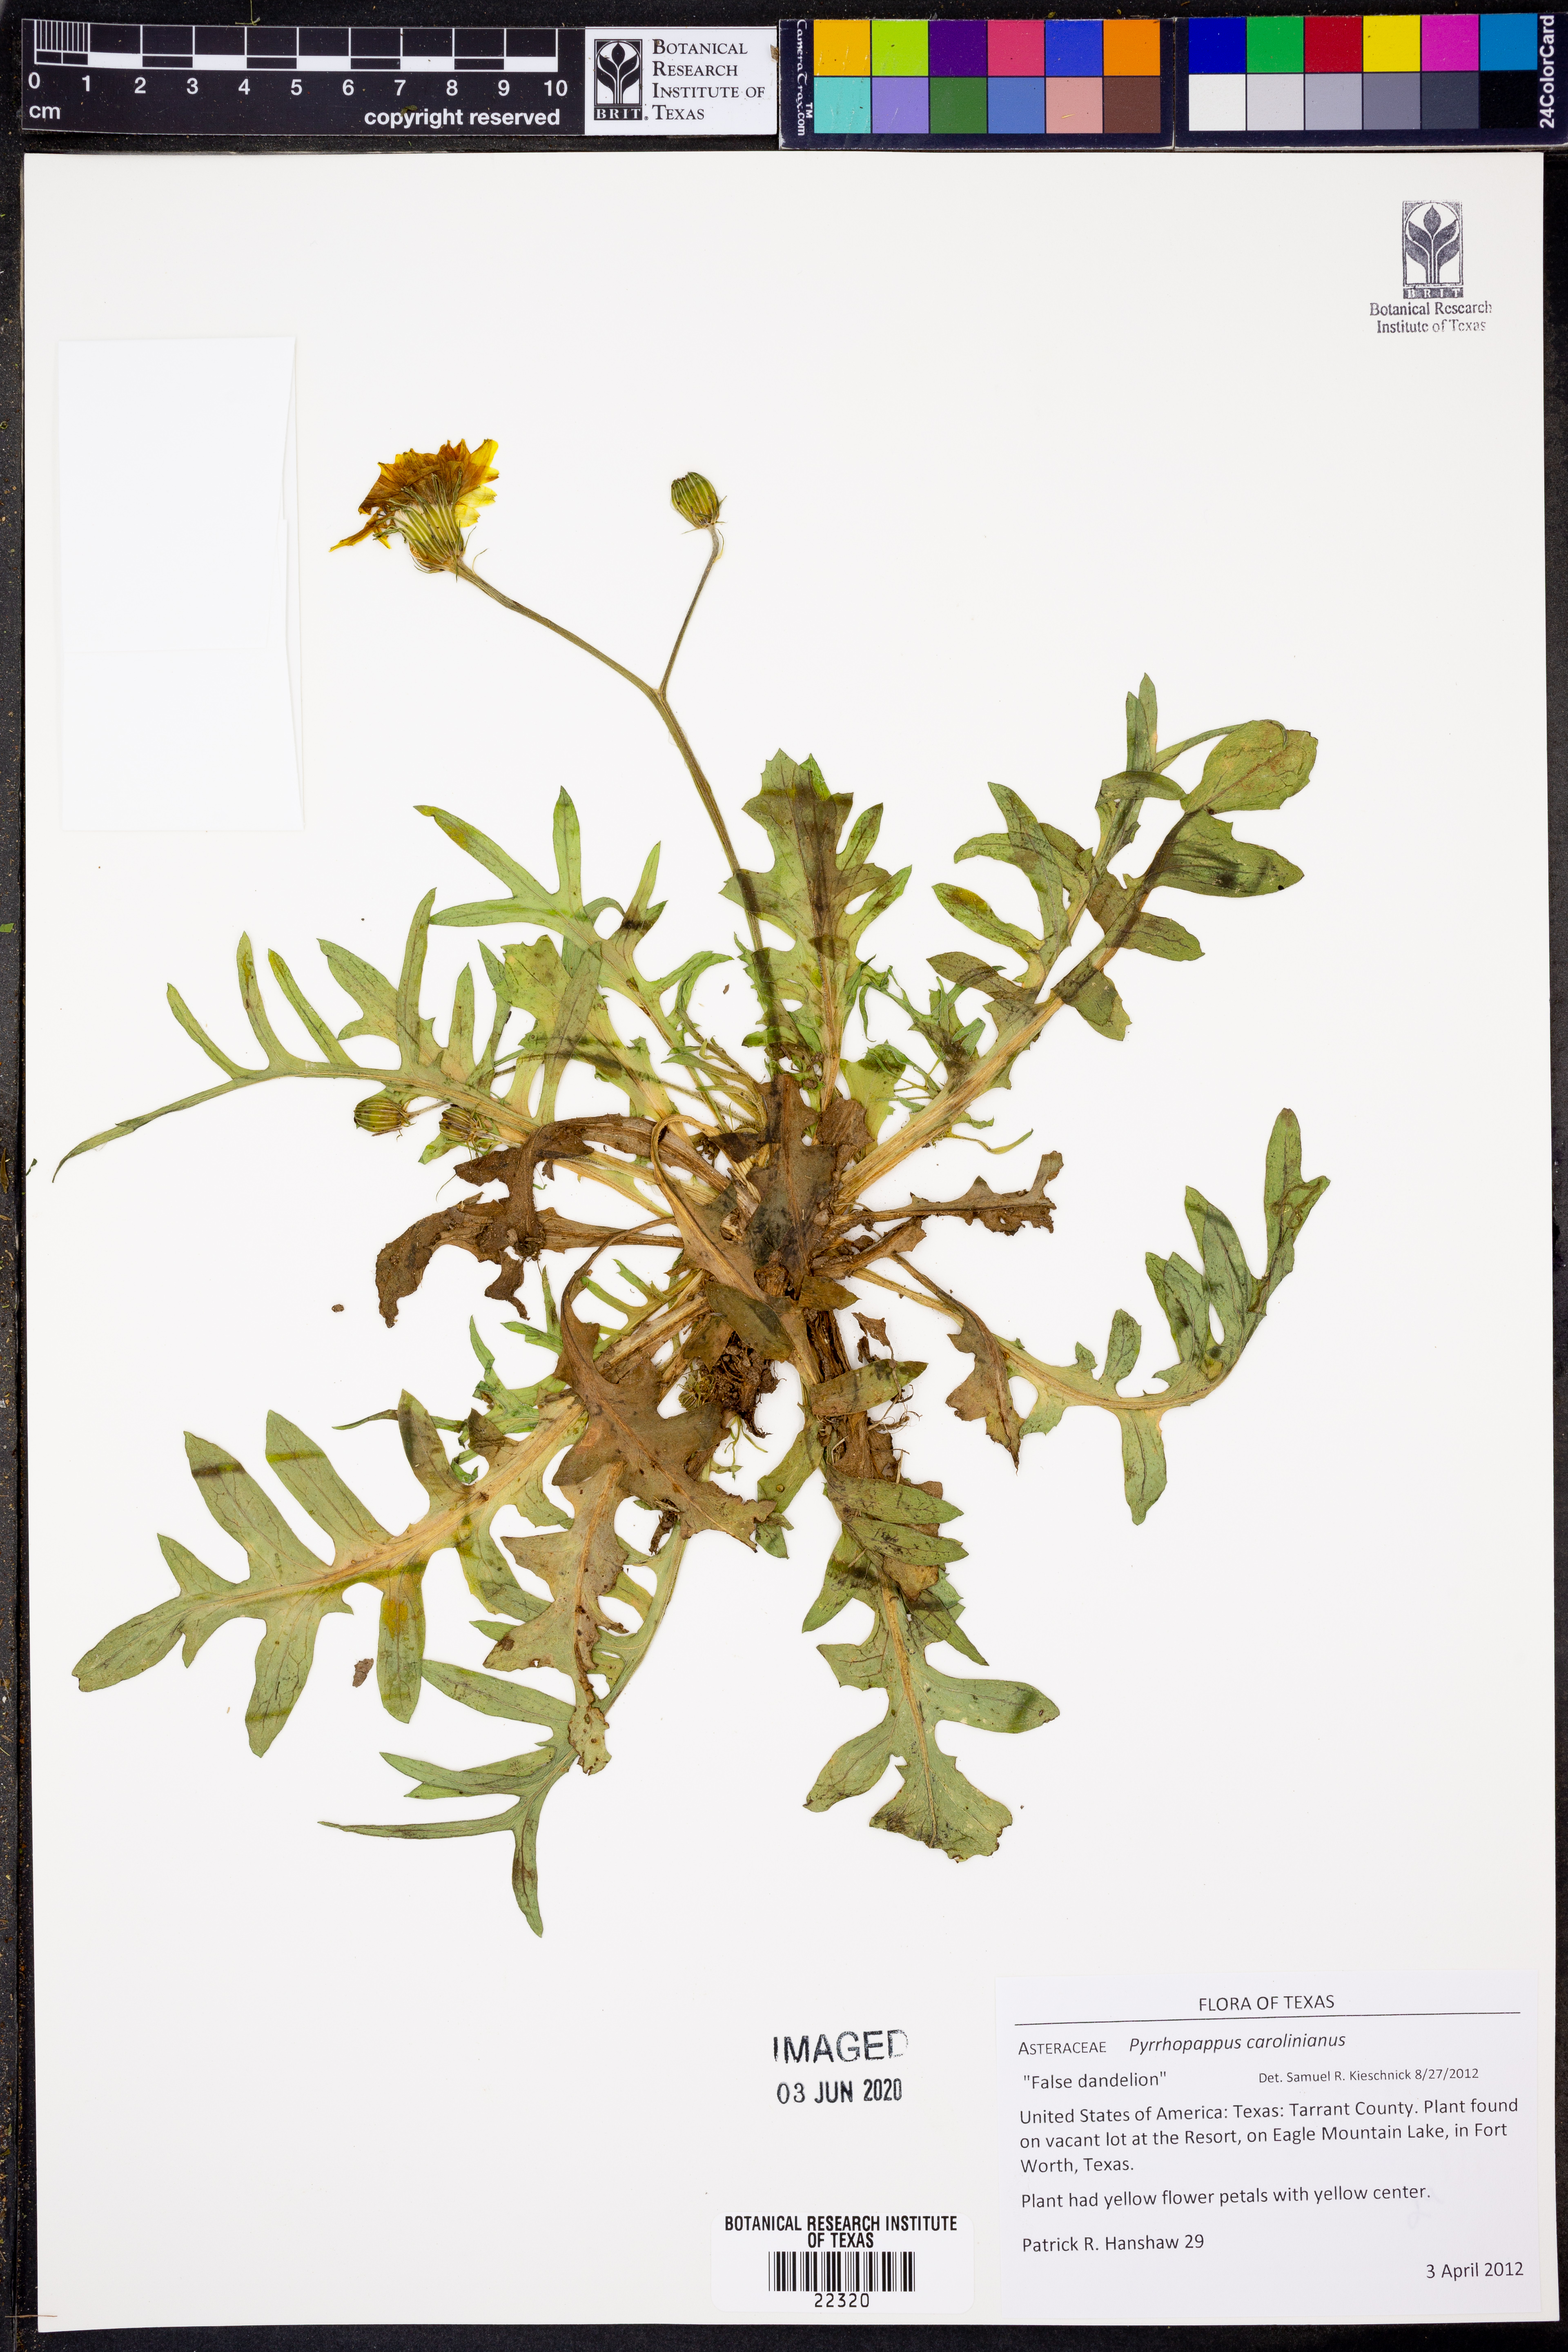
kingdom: Plantae
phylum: Tracheophyta
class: Magnoliopsida
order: Asterales
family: Asteraceae
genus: Pyrrhopappus
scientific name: Pyrrhopappus carolinianus
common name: Carolina desert-chicory
